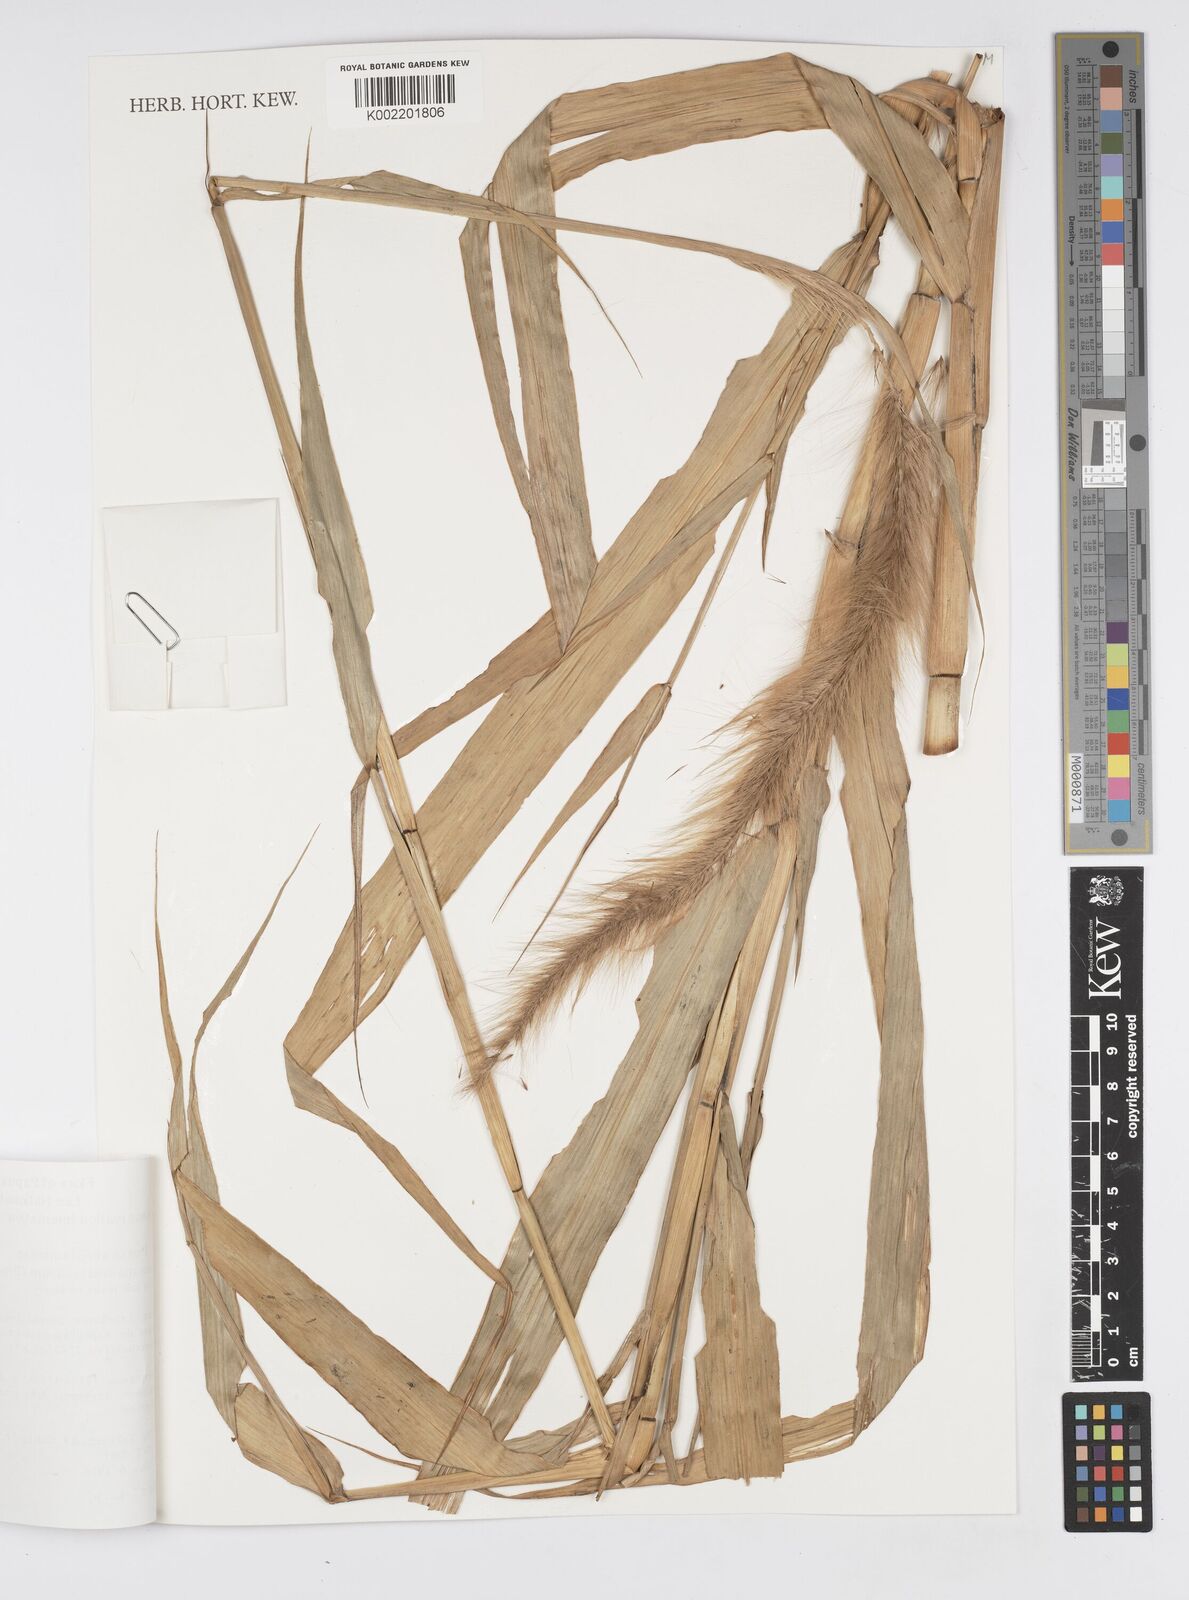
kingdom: Plantae
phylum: Tracheophyta
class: Liliopsida
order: Poales
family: Poaceae
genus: Cenchrus
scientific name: Cenchrus purpureus
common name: Elephant grass
